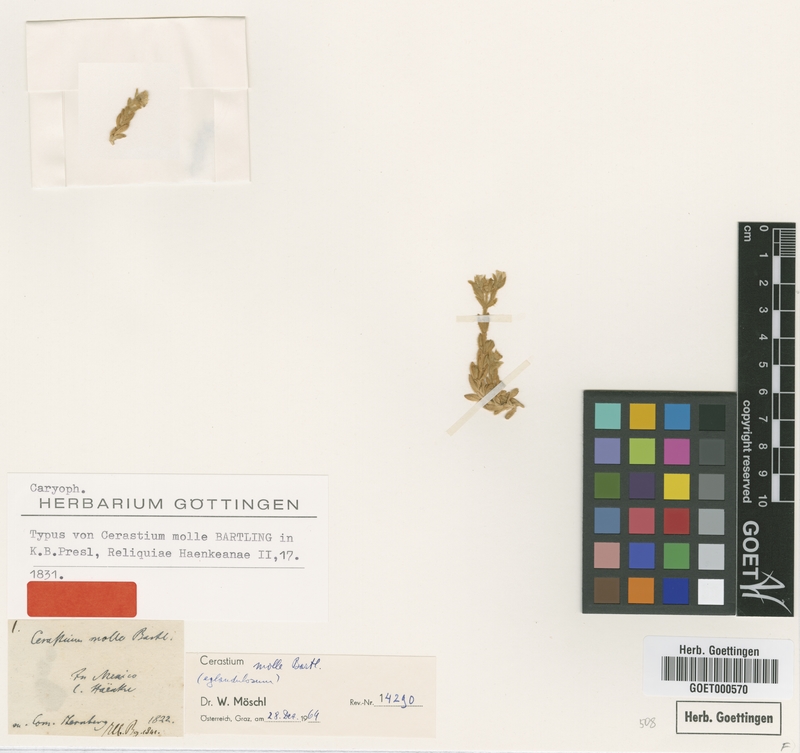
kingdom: Plantae
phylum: Tracheophyta
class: Magnoliopsida
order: Caryophyllales
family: Caryophyllaceae
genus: Cerastium
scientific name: Cerastium purpusii
